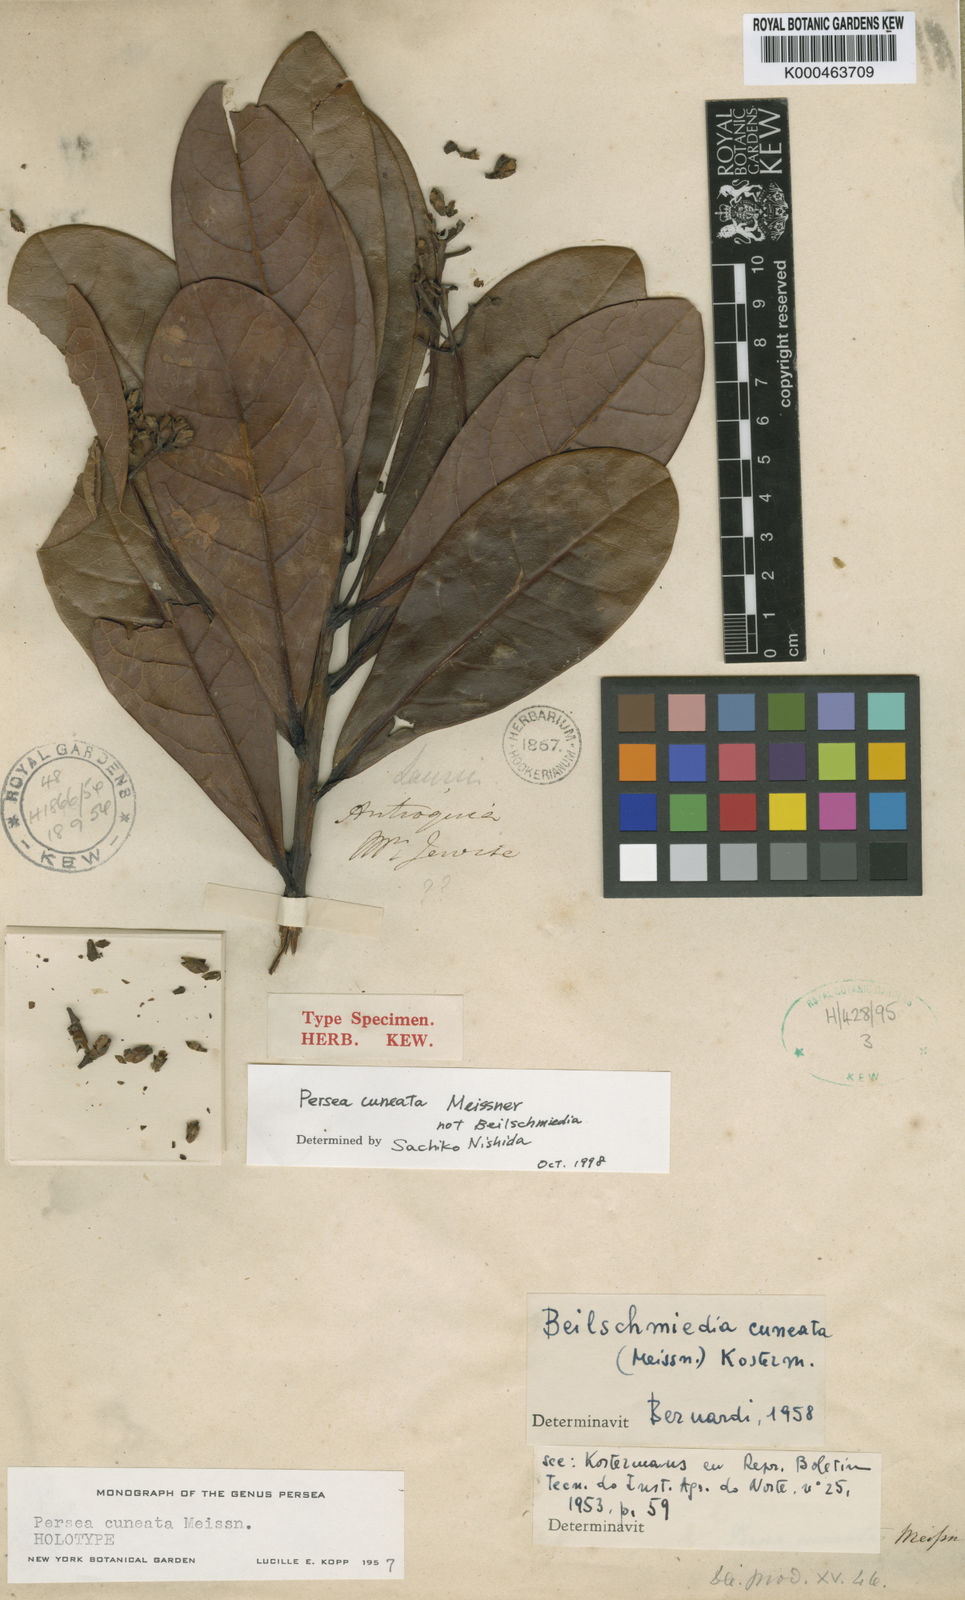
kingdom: Plantae
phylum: Tracheophyta
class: Magnoliopsida
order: Laurales
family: Lauraceae
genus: Persea
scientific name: Persea cuneata
